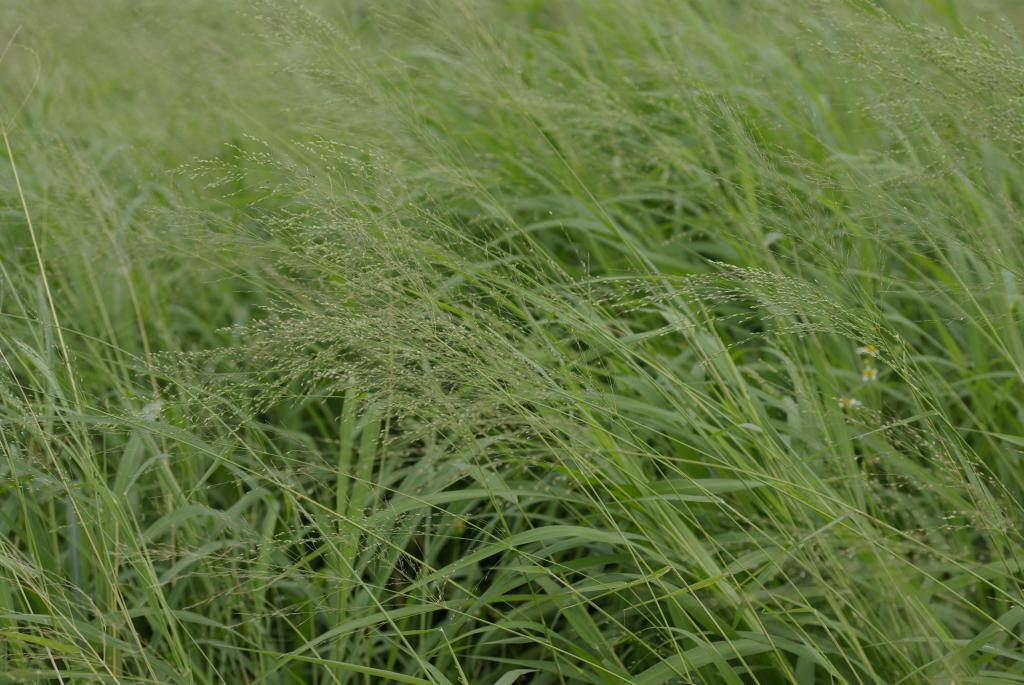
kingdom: Plantae
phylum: Tracheophyta
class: Liliopsida
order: Poales
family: Poaceae
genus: Megathyrsus
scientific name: Megathyrsus maximus
